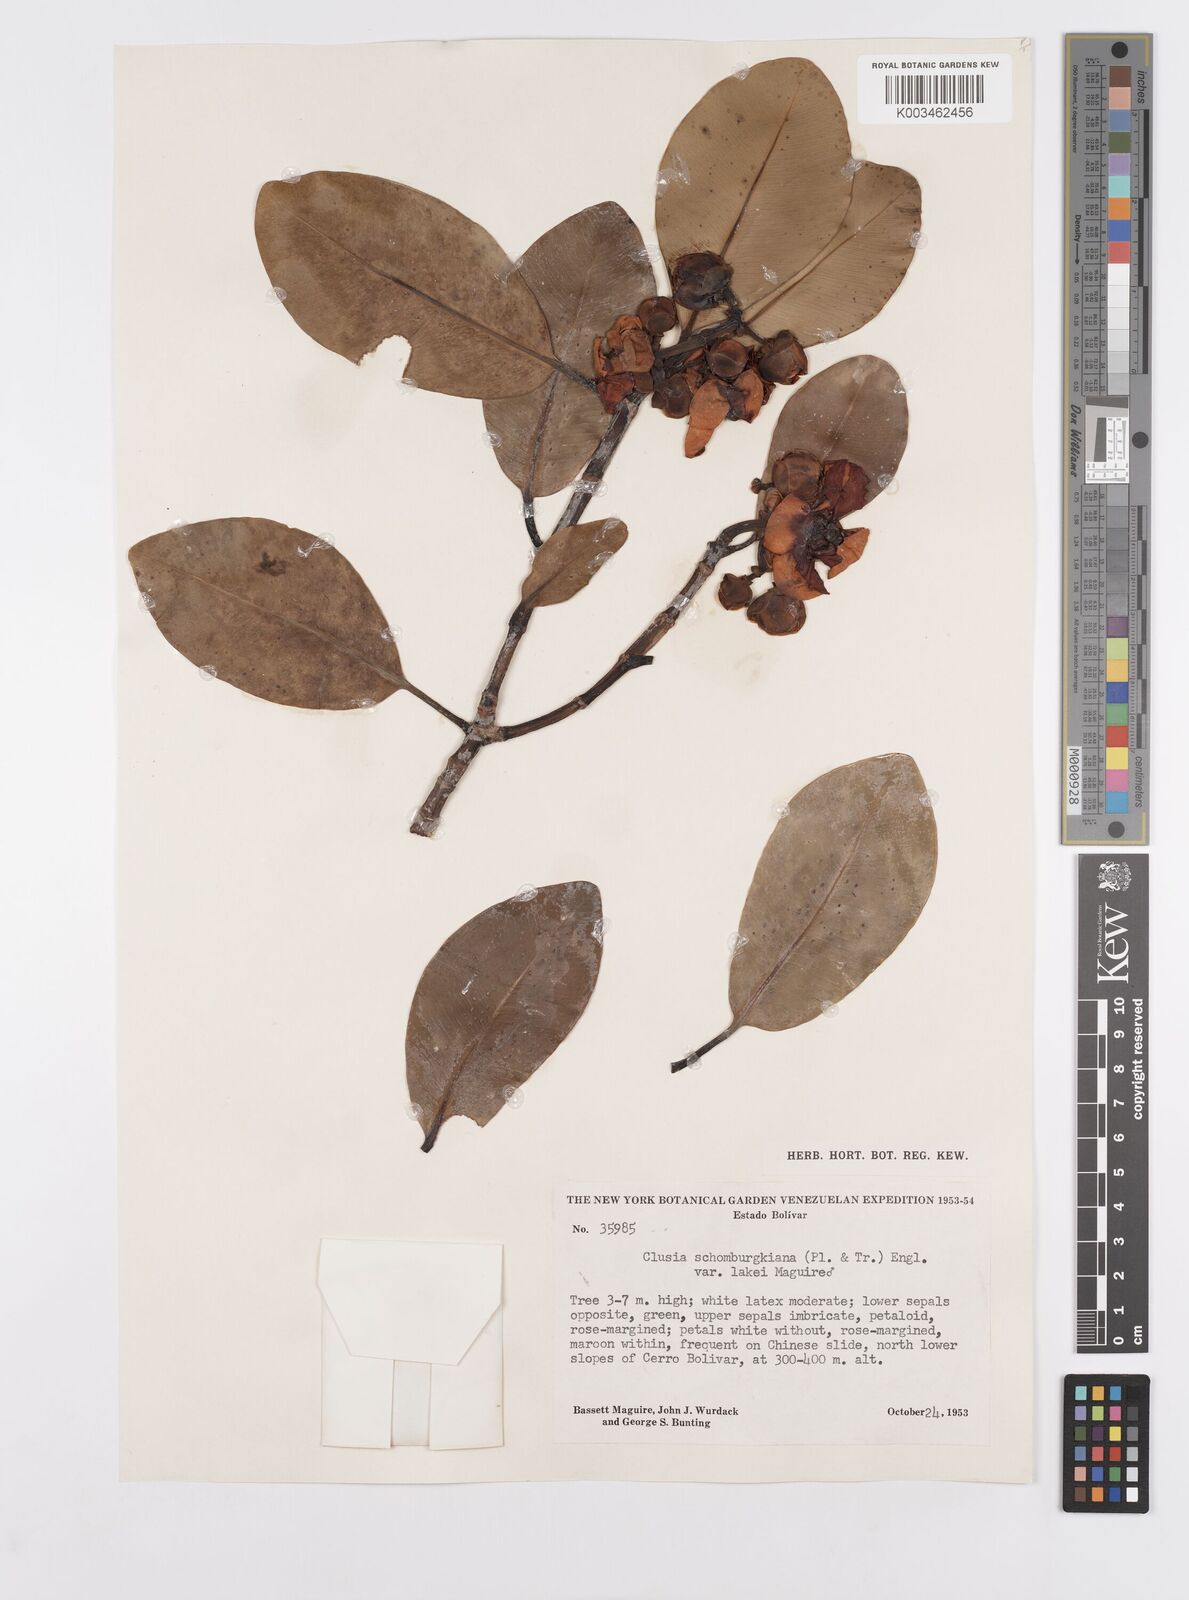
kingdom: Plantae
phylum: Tracheophyta
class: Magnoliopsida
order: Malpighiales
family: Clusiaceae
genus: Clusia
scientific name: Clusia schomburgkiana
